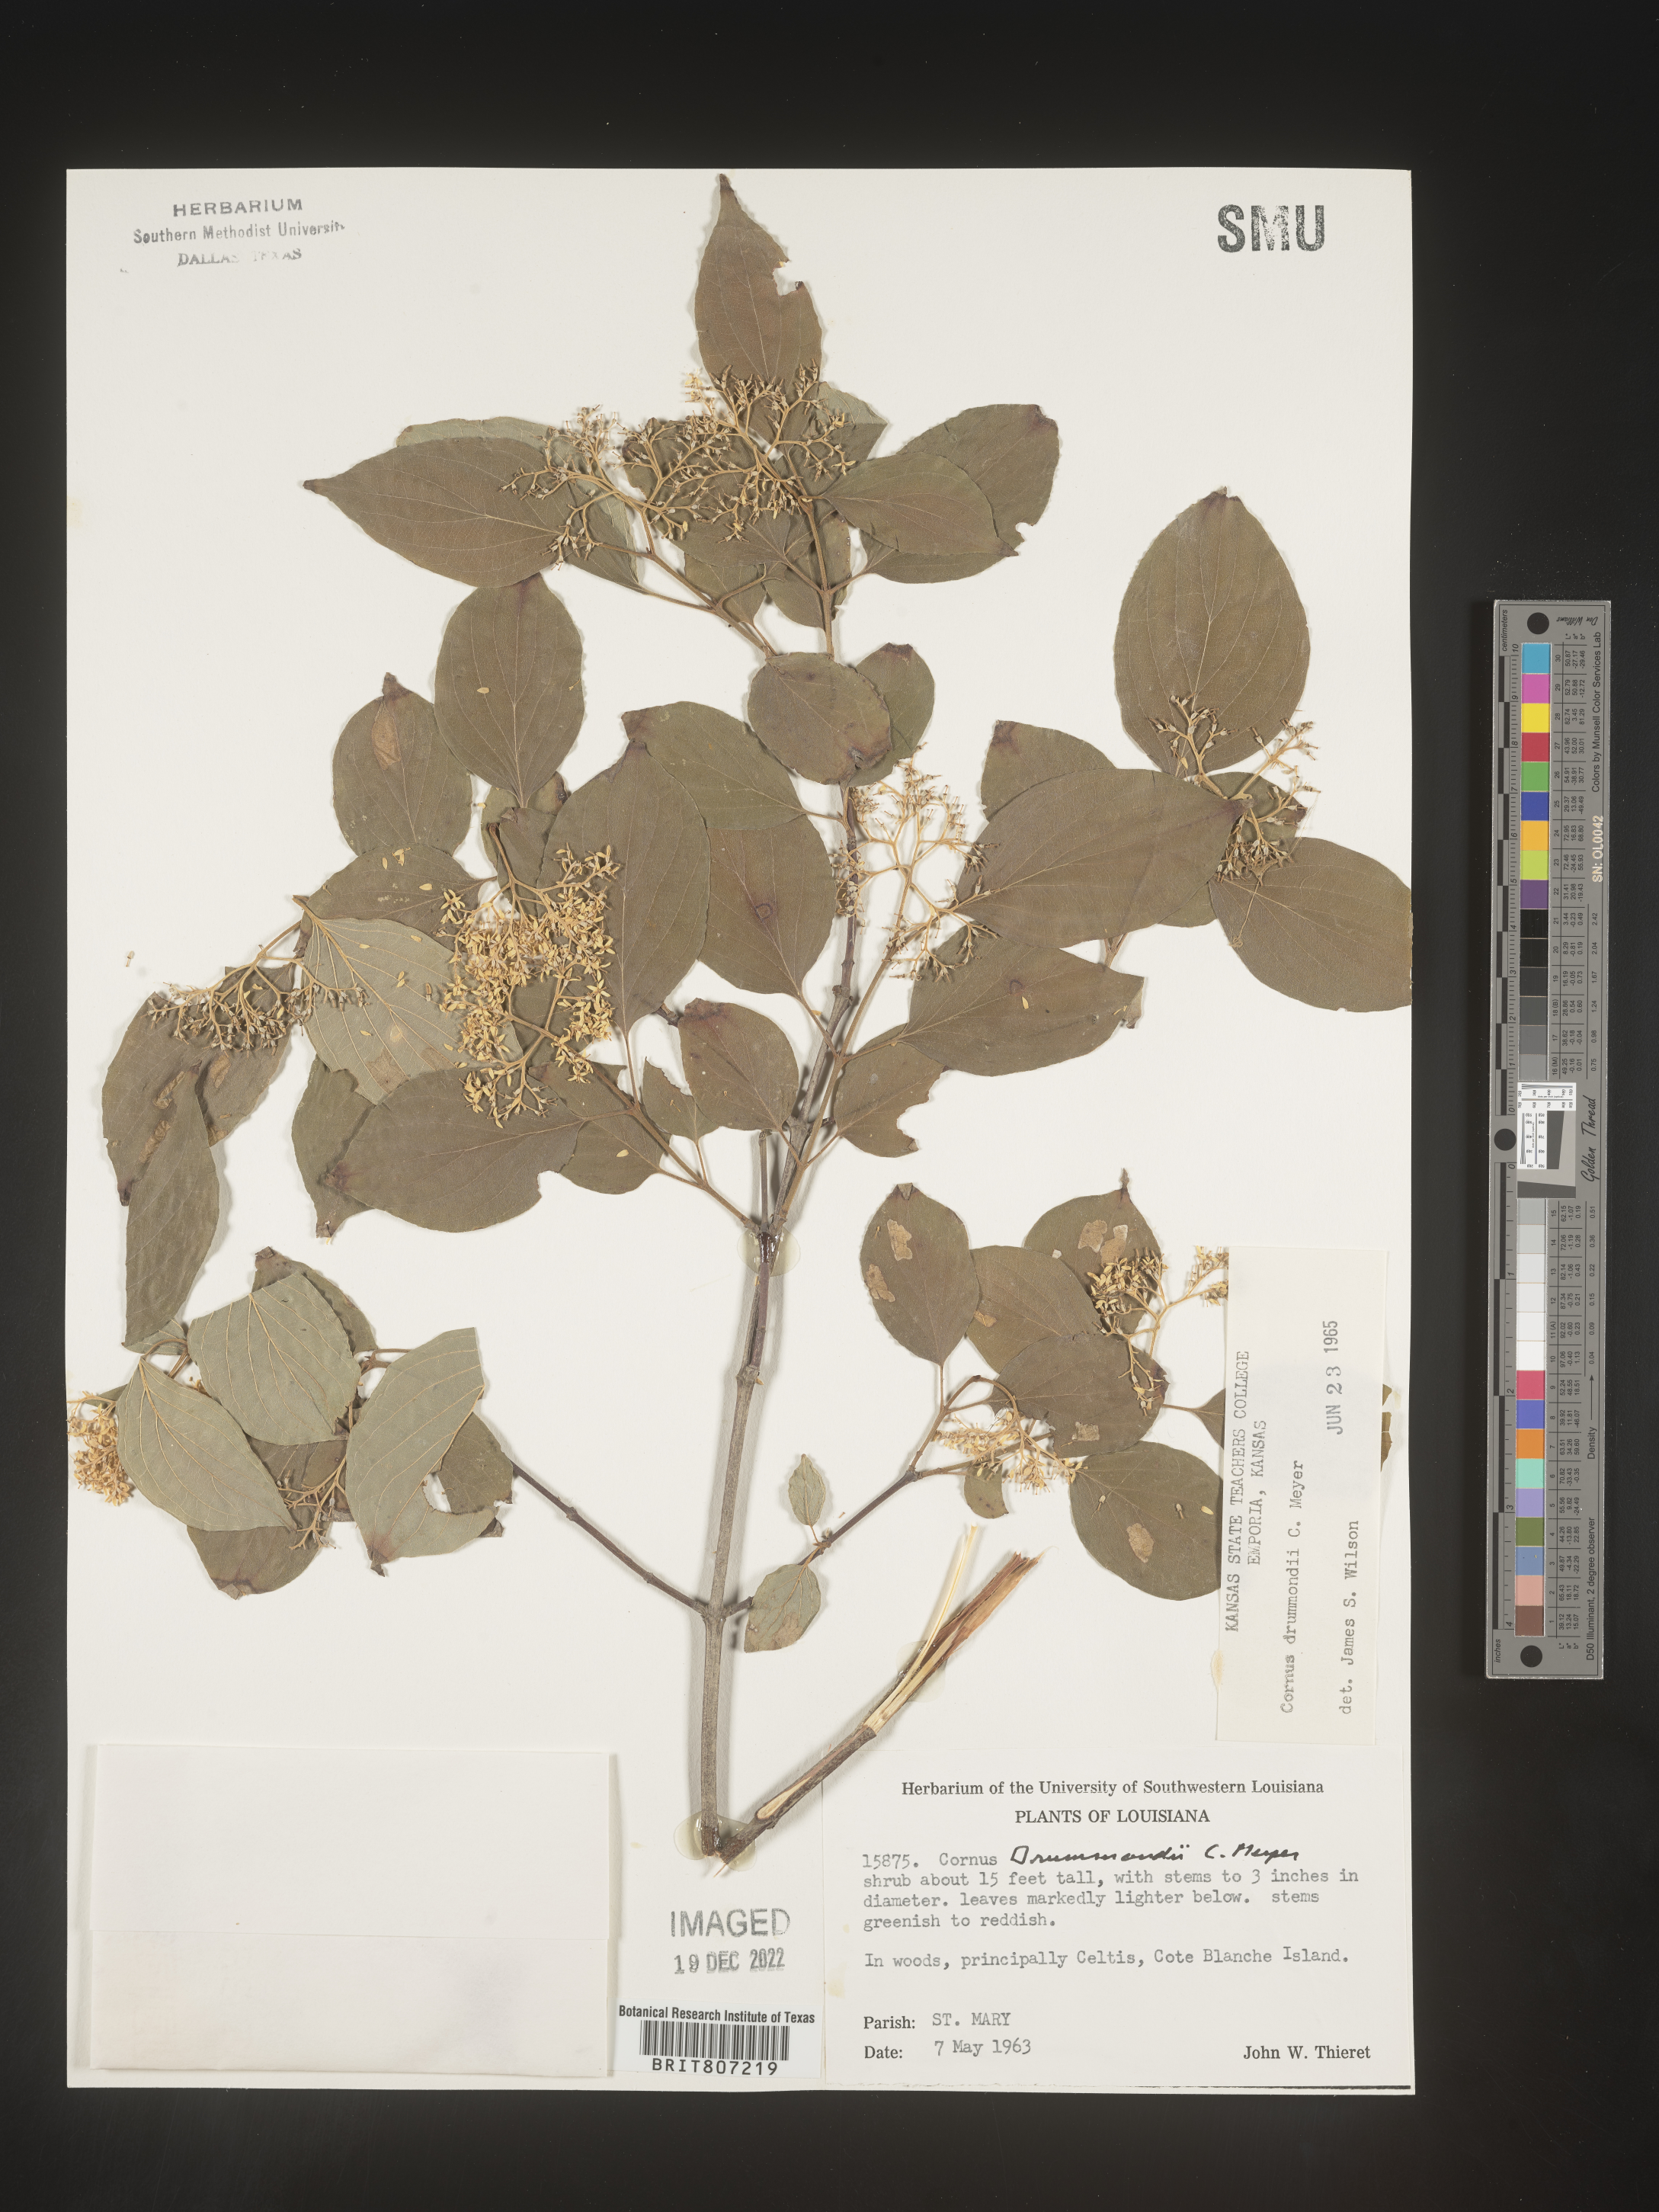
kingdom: Plantae
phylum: Tracheophyta
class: Magnoliopsida
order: Cornales
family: Cornaceae
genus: Cornus
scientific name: Cornus drummondii
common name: Rough-leaf dogwood
